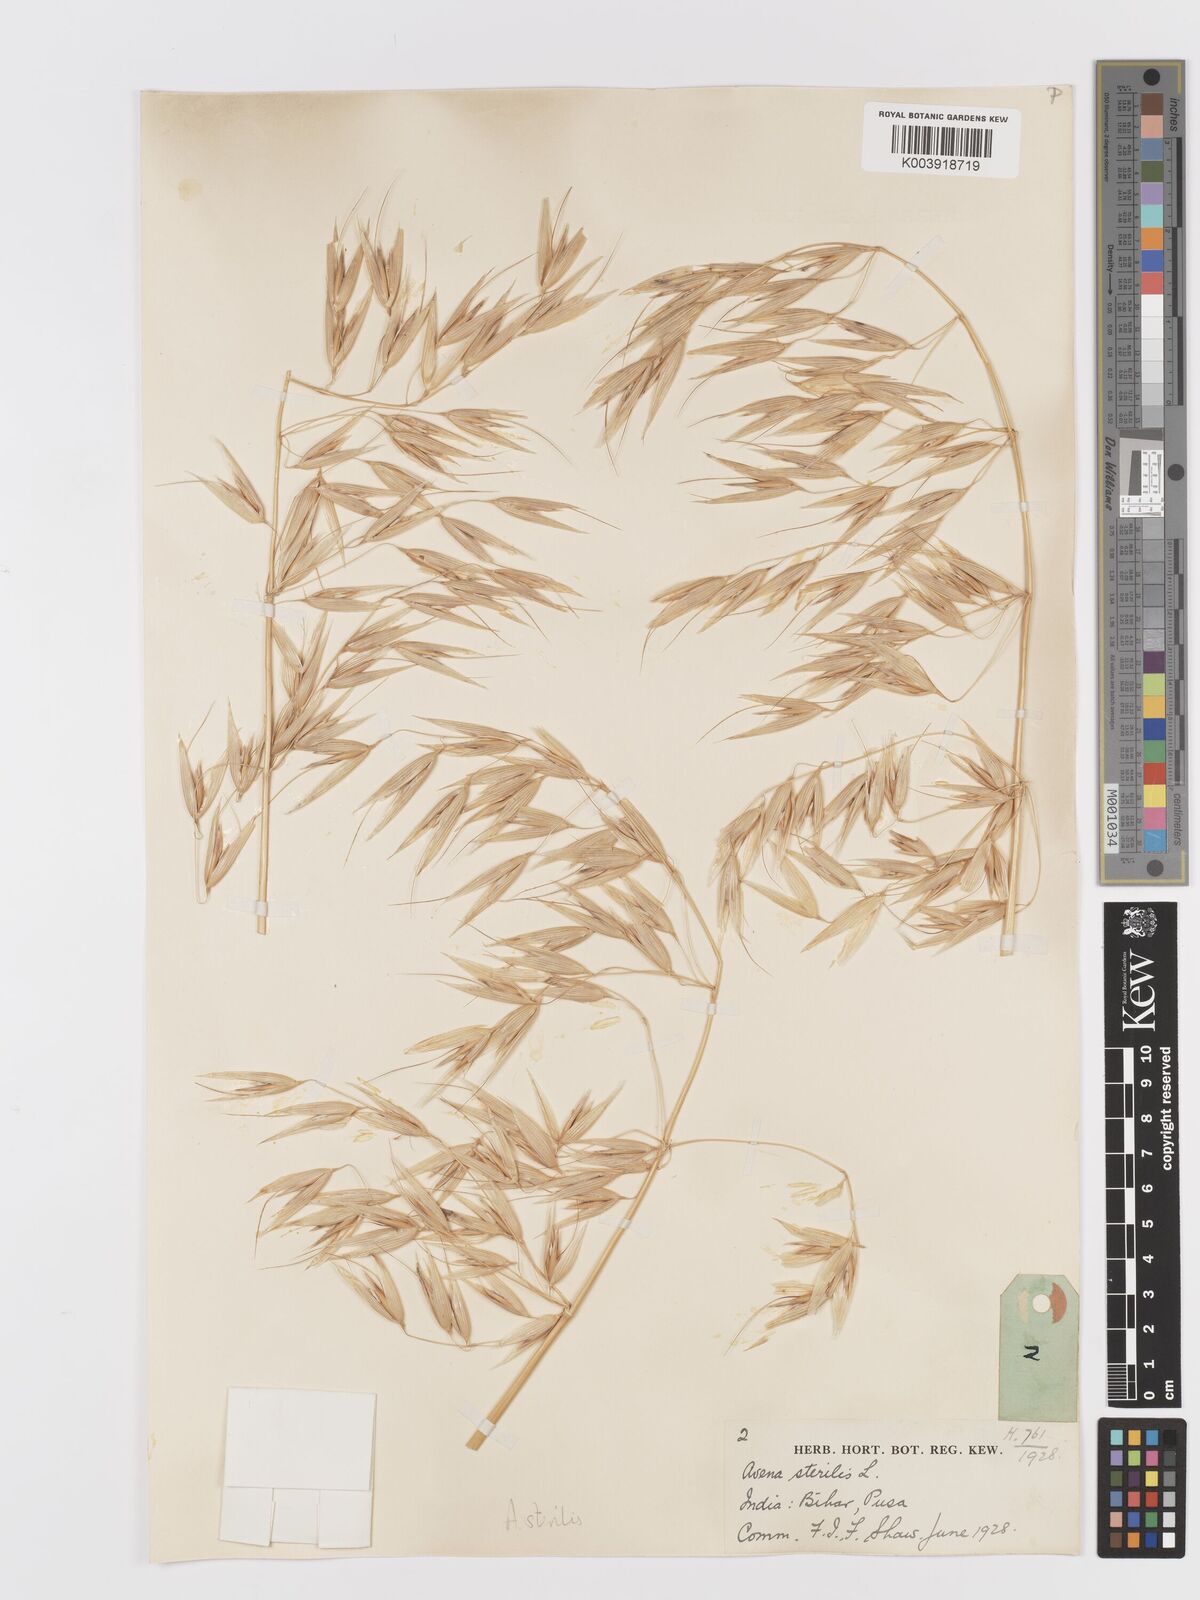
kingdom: Plantae
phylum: Tracheophyta
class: Liliopsida
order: Poales
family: Poaceae
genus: Avena
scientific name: Avena sterilis
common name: Animated oat
